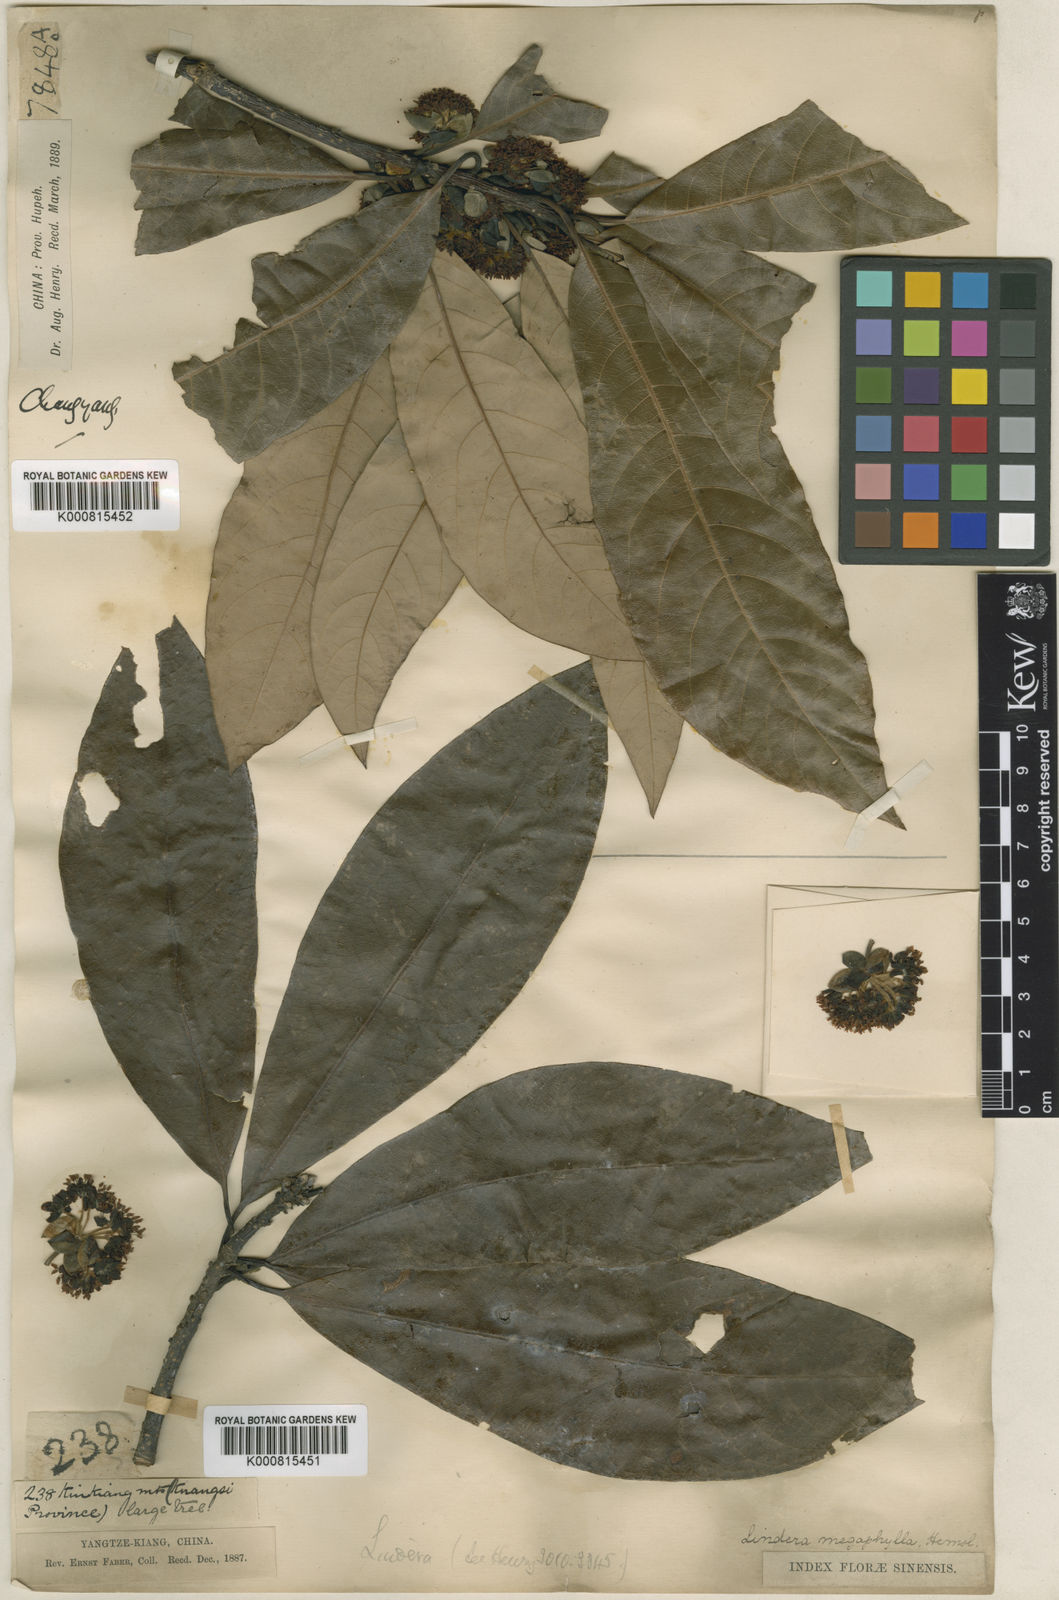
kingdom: Plantae
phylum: Tracheophyta
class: Magnoliopsida
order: Laurales
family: Lauraceae
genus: Lindera
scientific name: Lindera megaphylla
